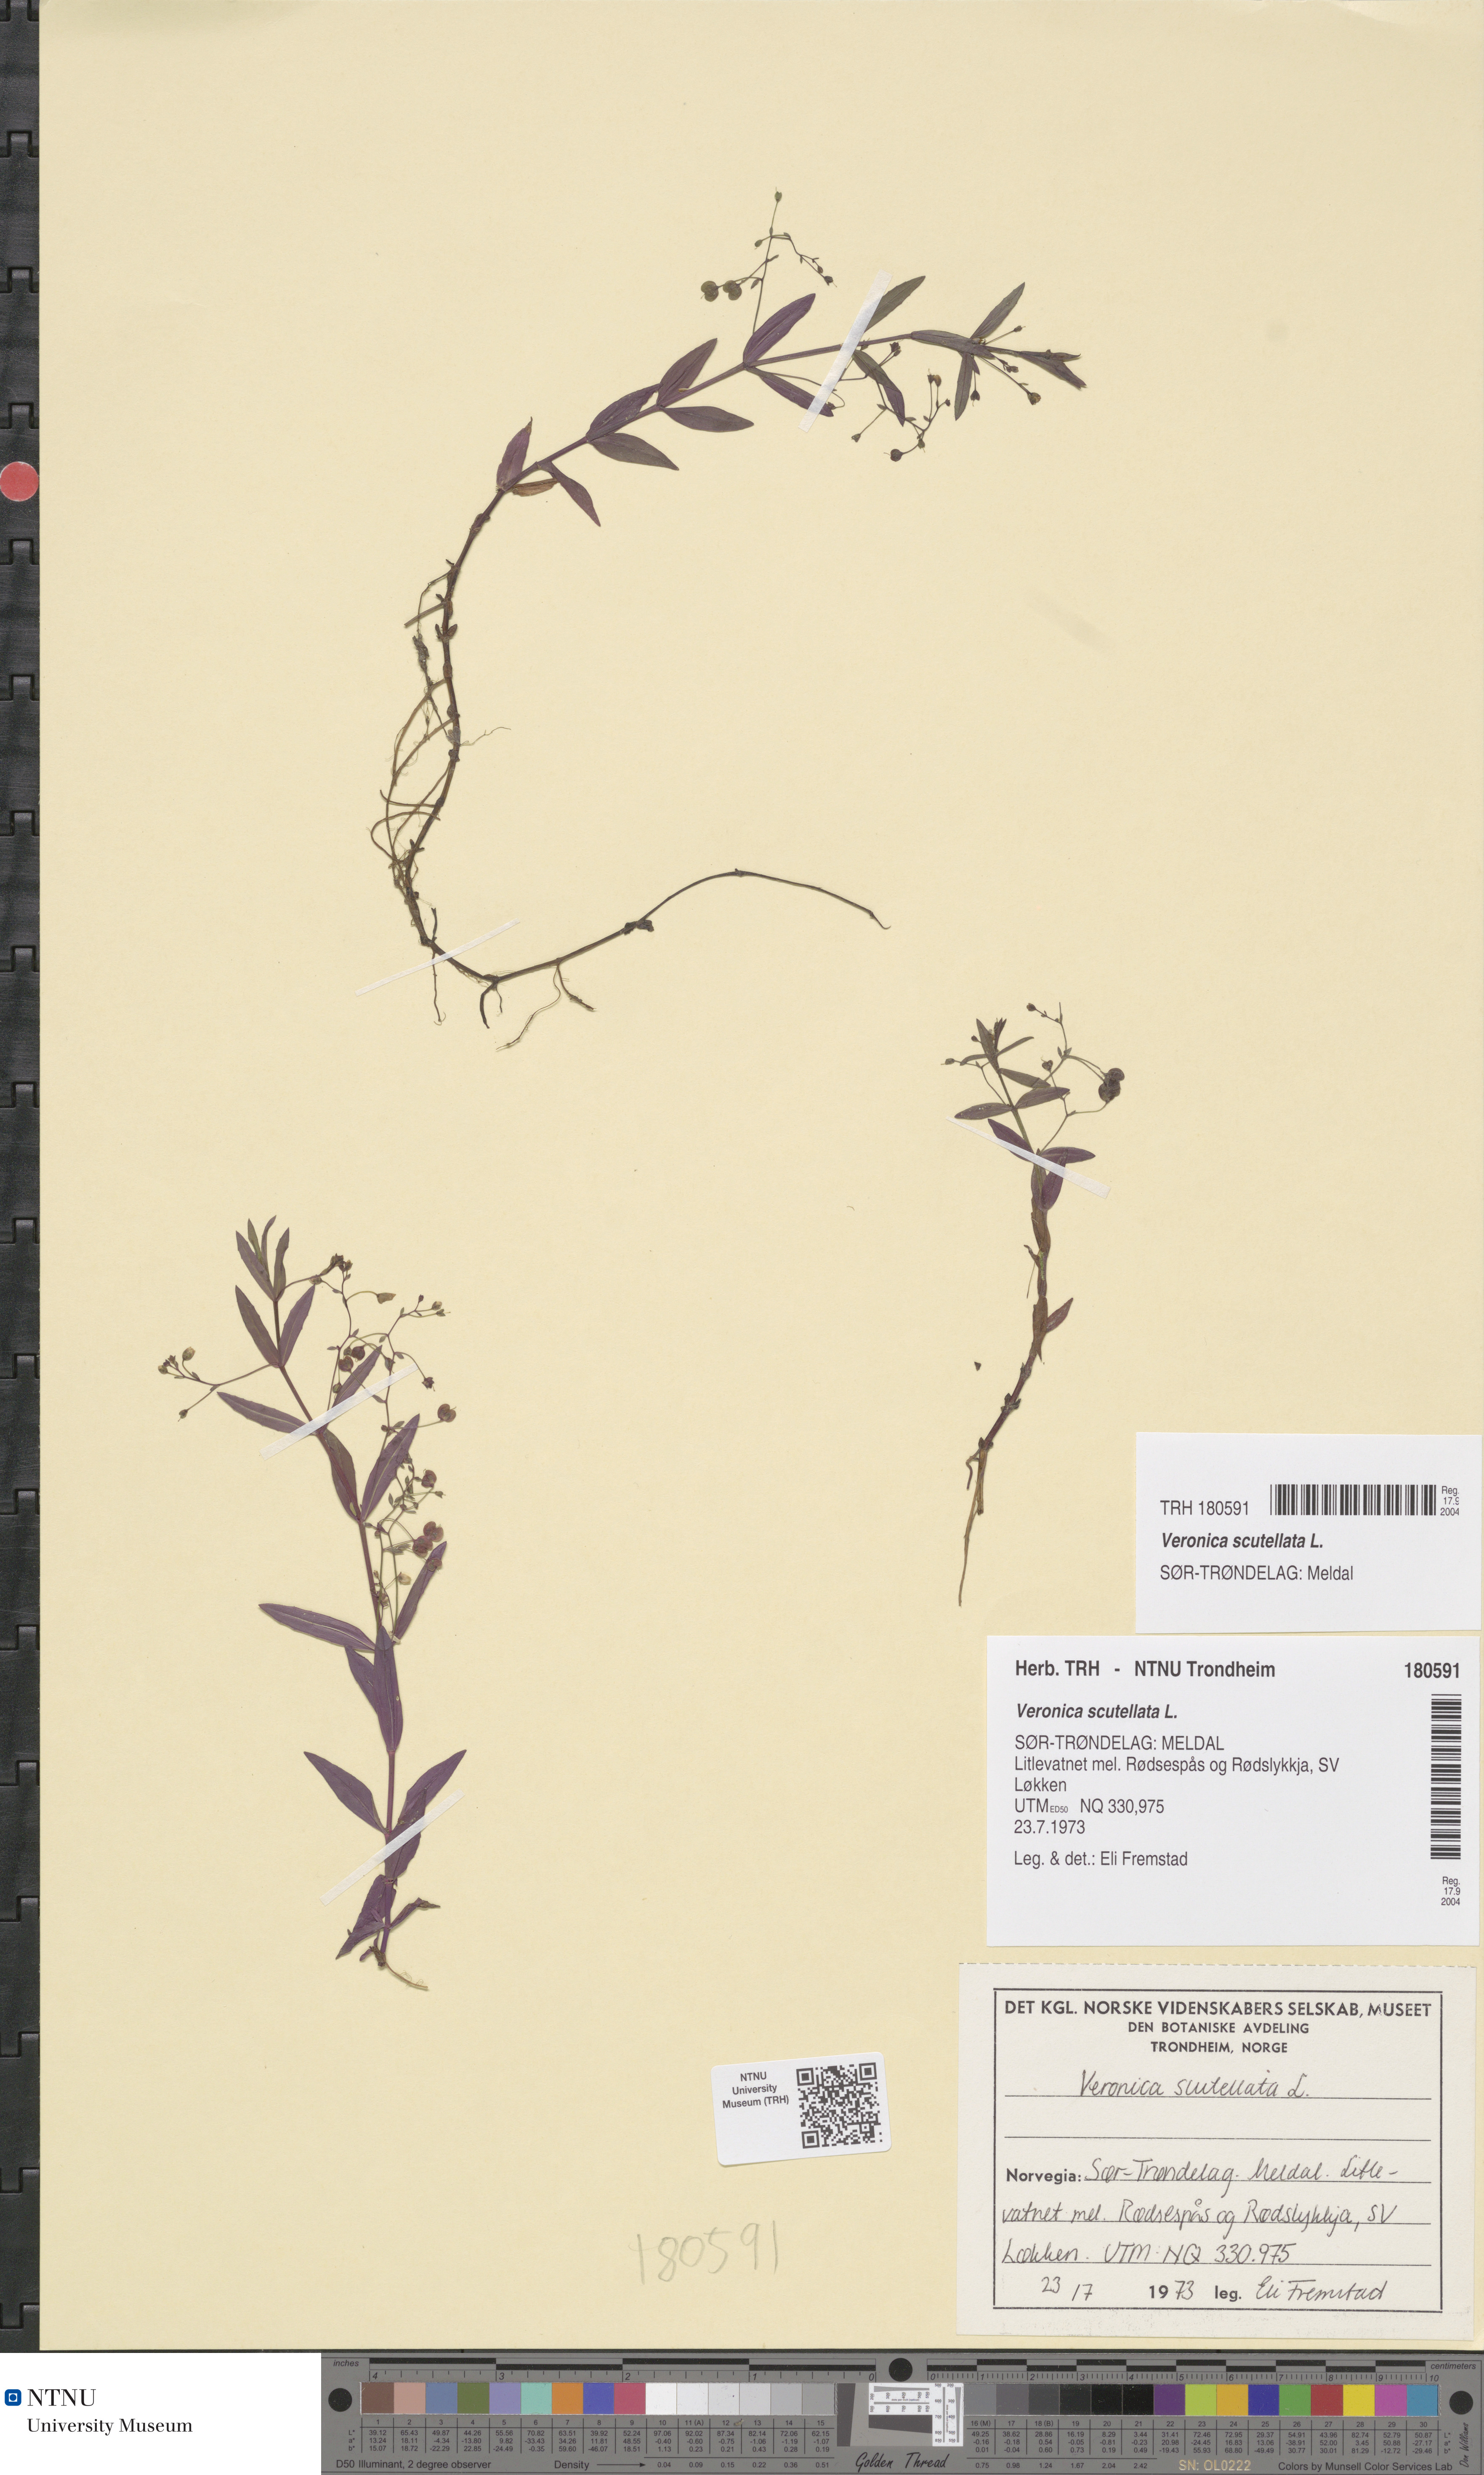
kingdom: Plantae
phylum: Tracheophyta
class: Magnoliopsida
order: Lamiales
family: Plantaginaceae
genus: Veronica
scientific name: Veronica scutellata
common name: Marsh speedwell
